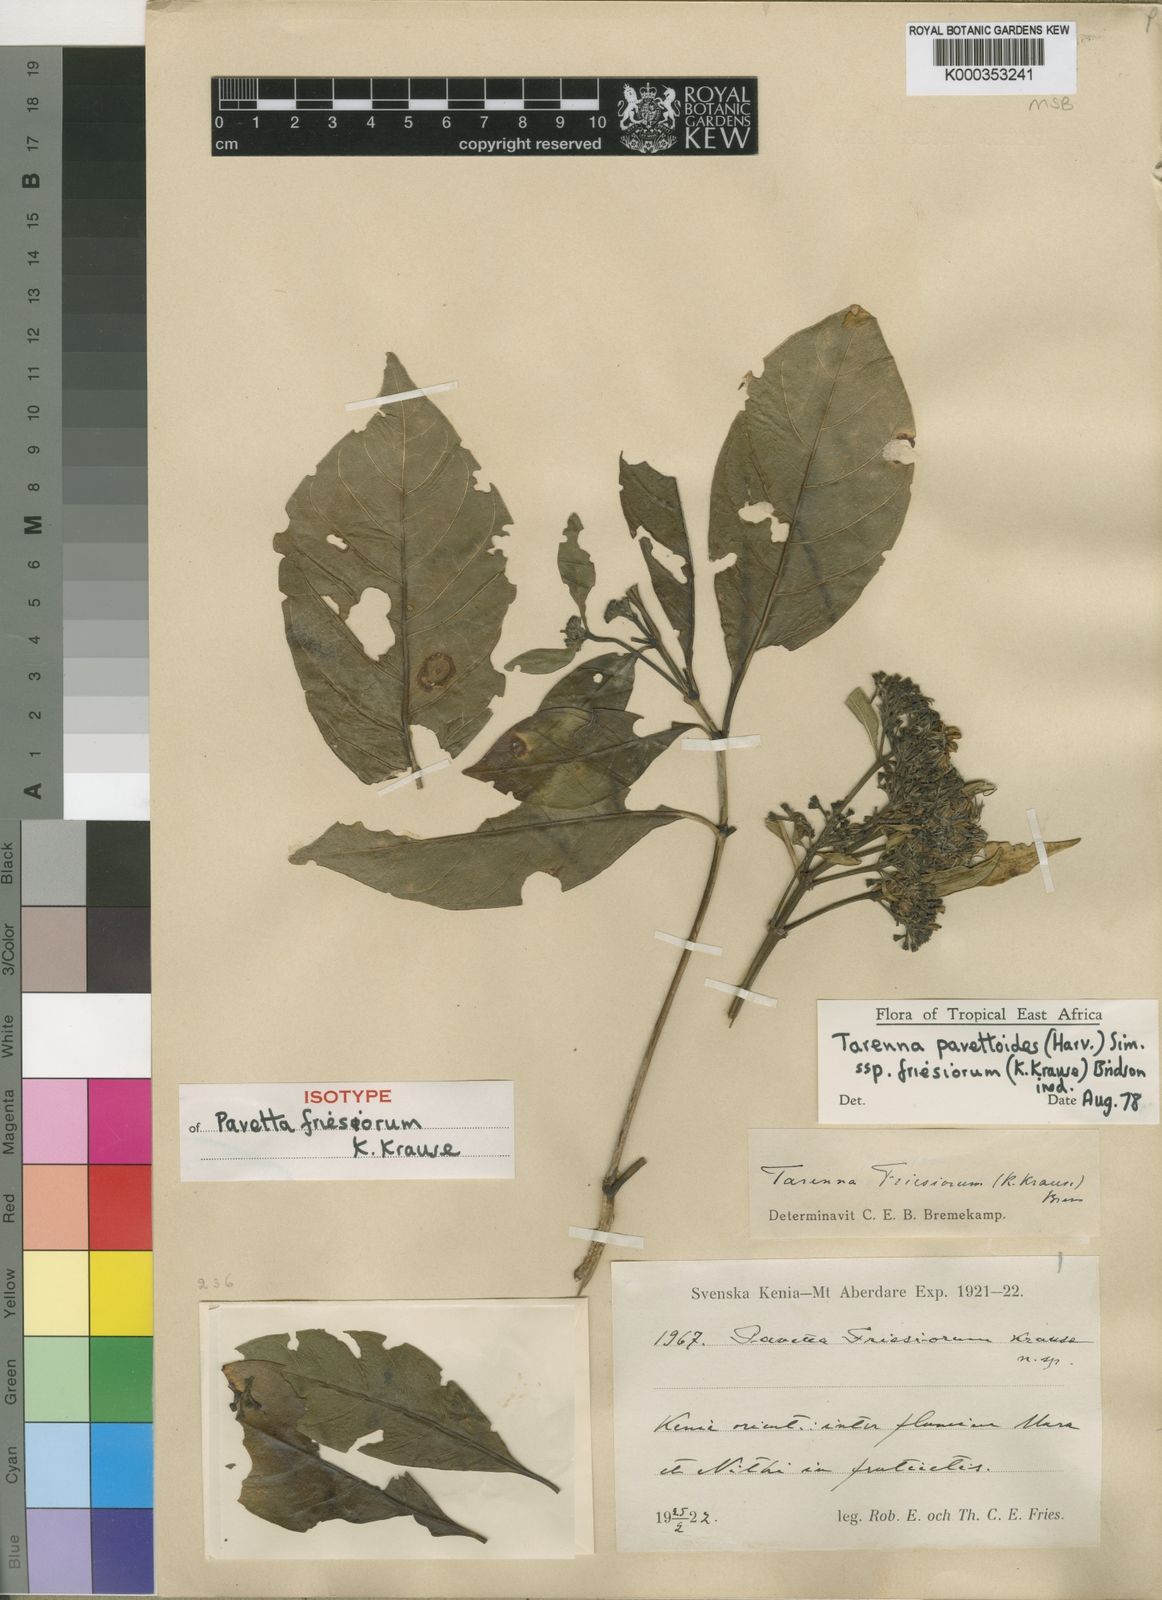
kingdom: Plantae
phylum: Tracheophyta
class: Magnoliopsida
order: Gentianales
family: Rubiaceae
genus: Tarenna
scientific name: Tarenna pavettoides
